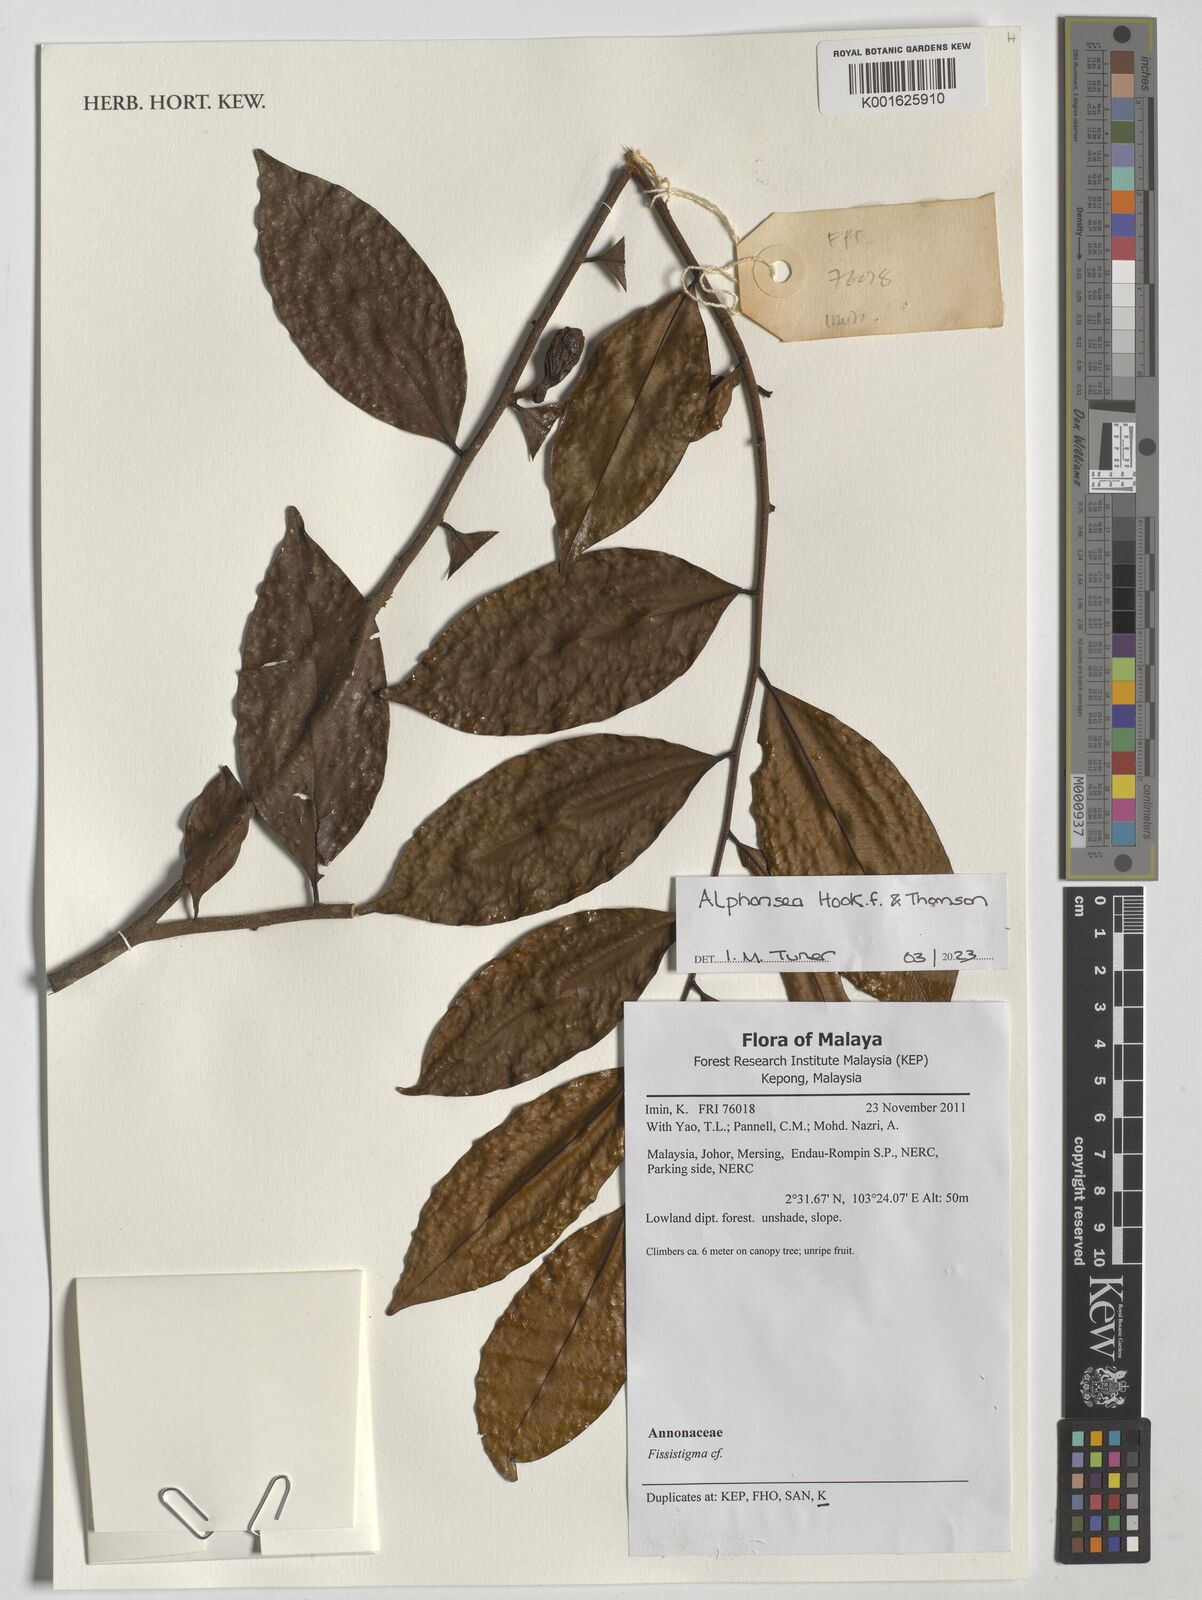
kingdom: Plantae
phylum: Tracheophyta
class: Magnoliopsida
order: Magnoliales
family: Annonaceae
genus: Alphonsea
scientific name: Alphonsea
